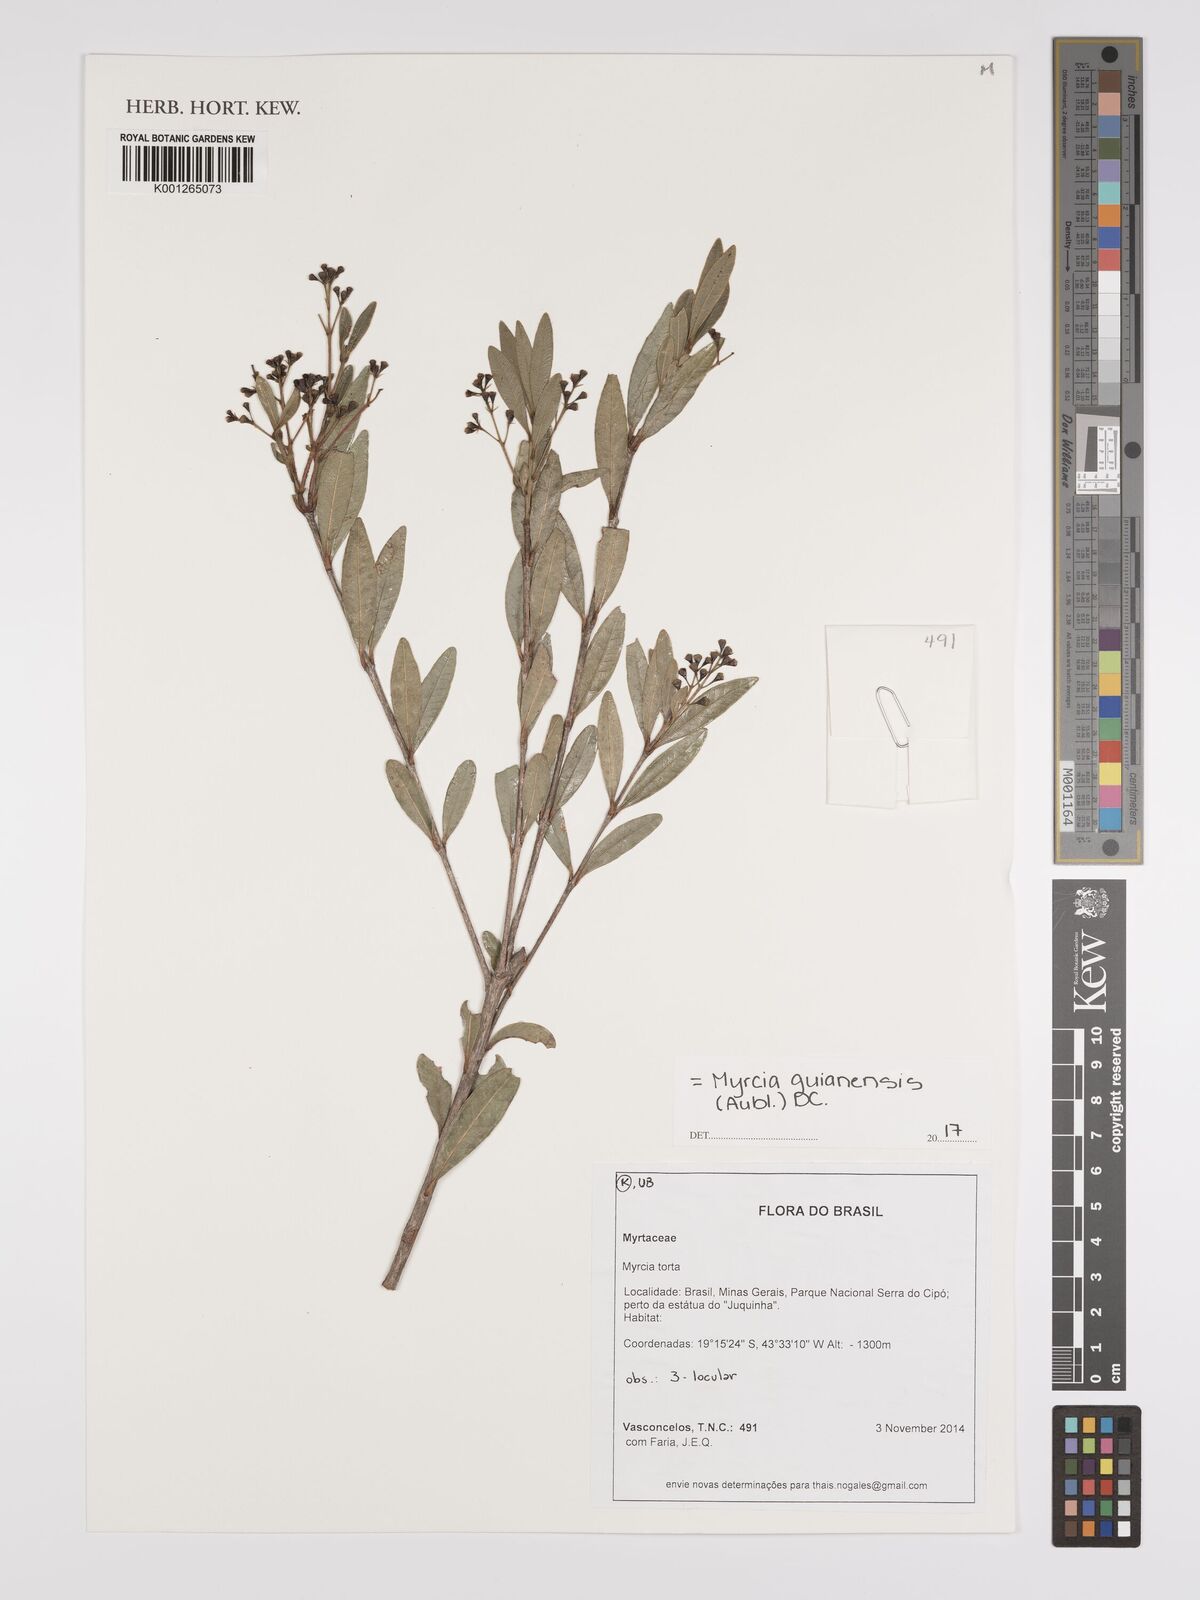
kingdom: Plantae
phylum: Tracheophyta
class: Magnoliopsida
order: Myrtales
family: Myrtaceae
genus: Myrcia
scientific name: Myrcia guianensis
